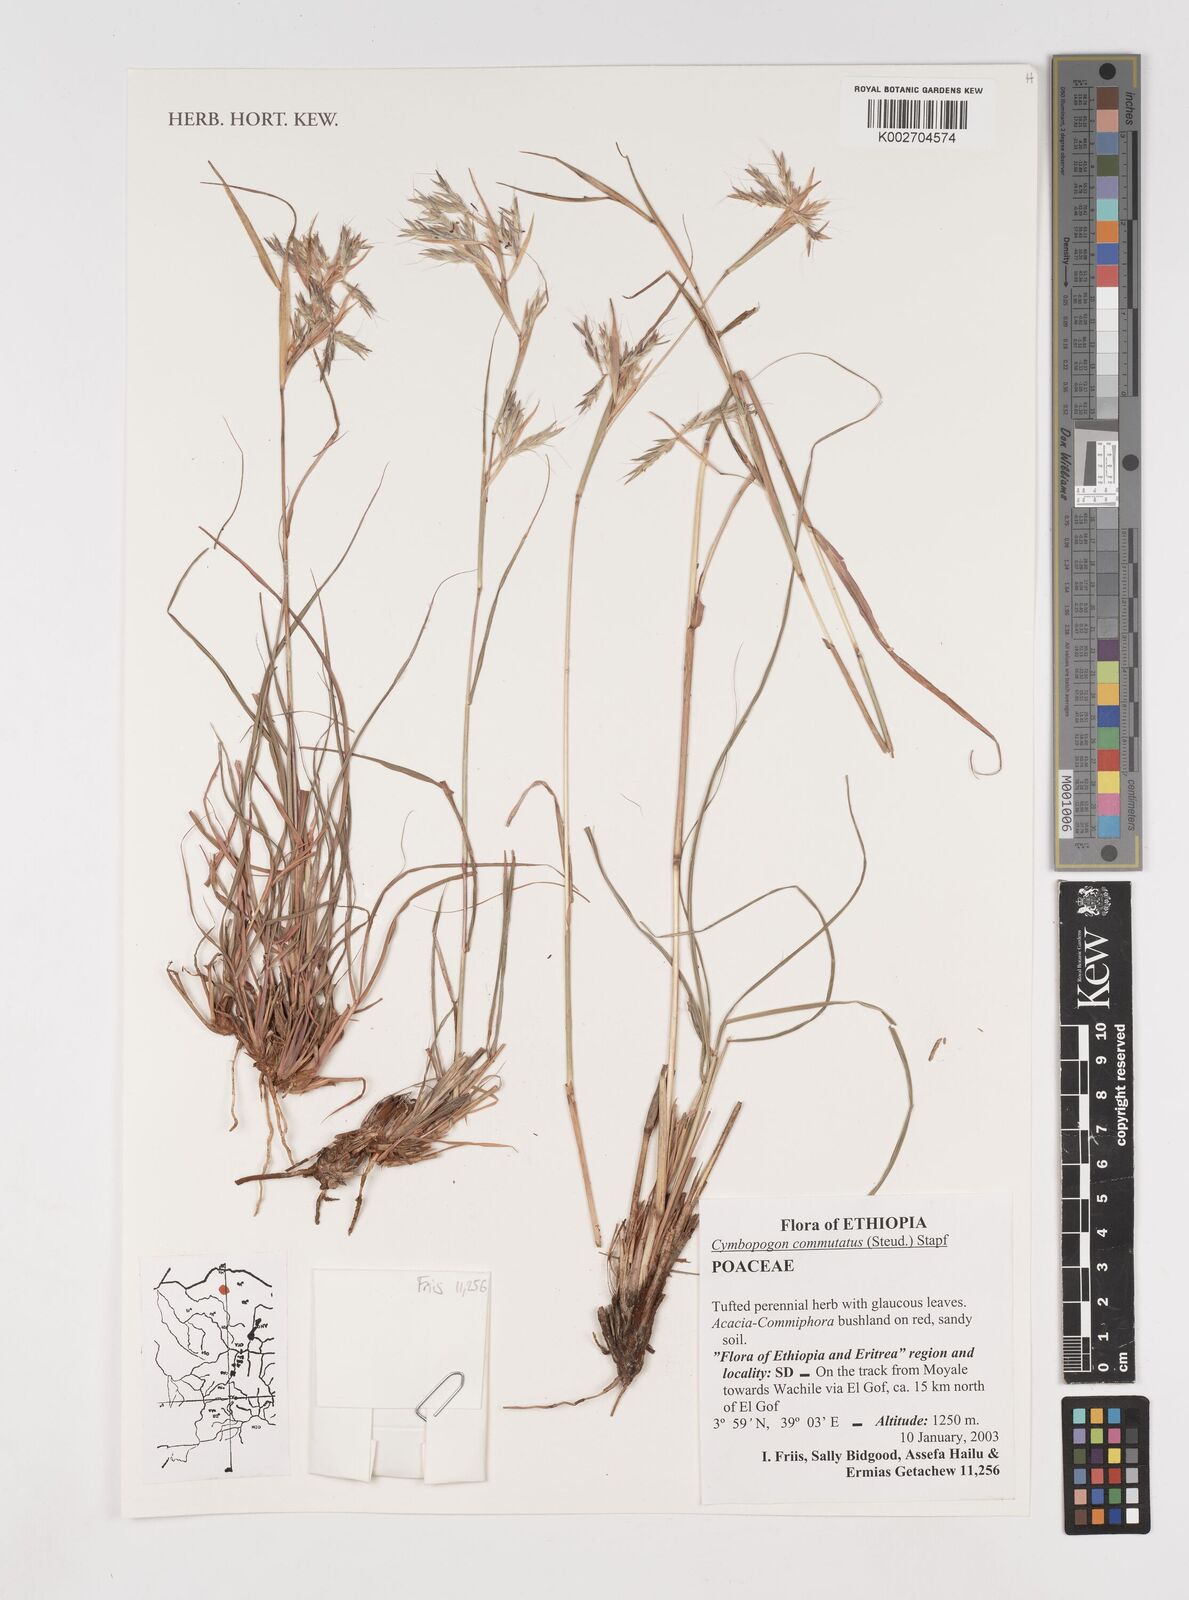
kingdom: Plantae
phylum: Tracheophyta
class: Liliopsida
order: Poales
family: Poaceae
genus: Cymbopogon
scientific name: Cymbopogon commutatus
